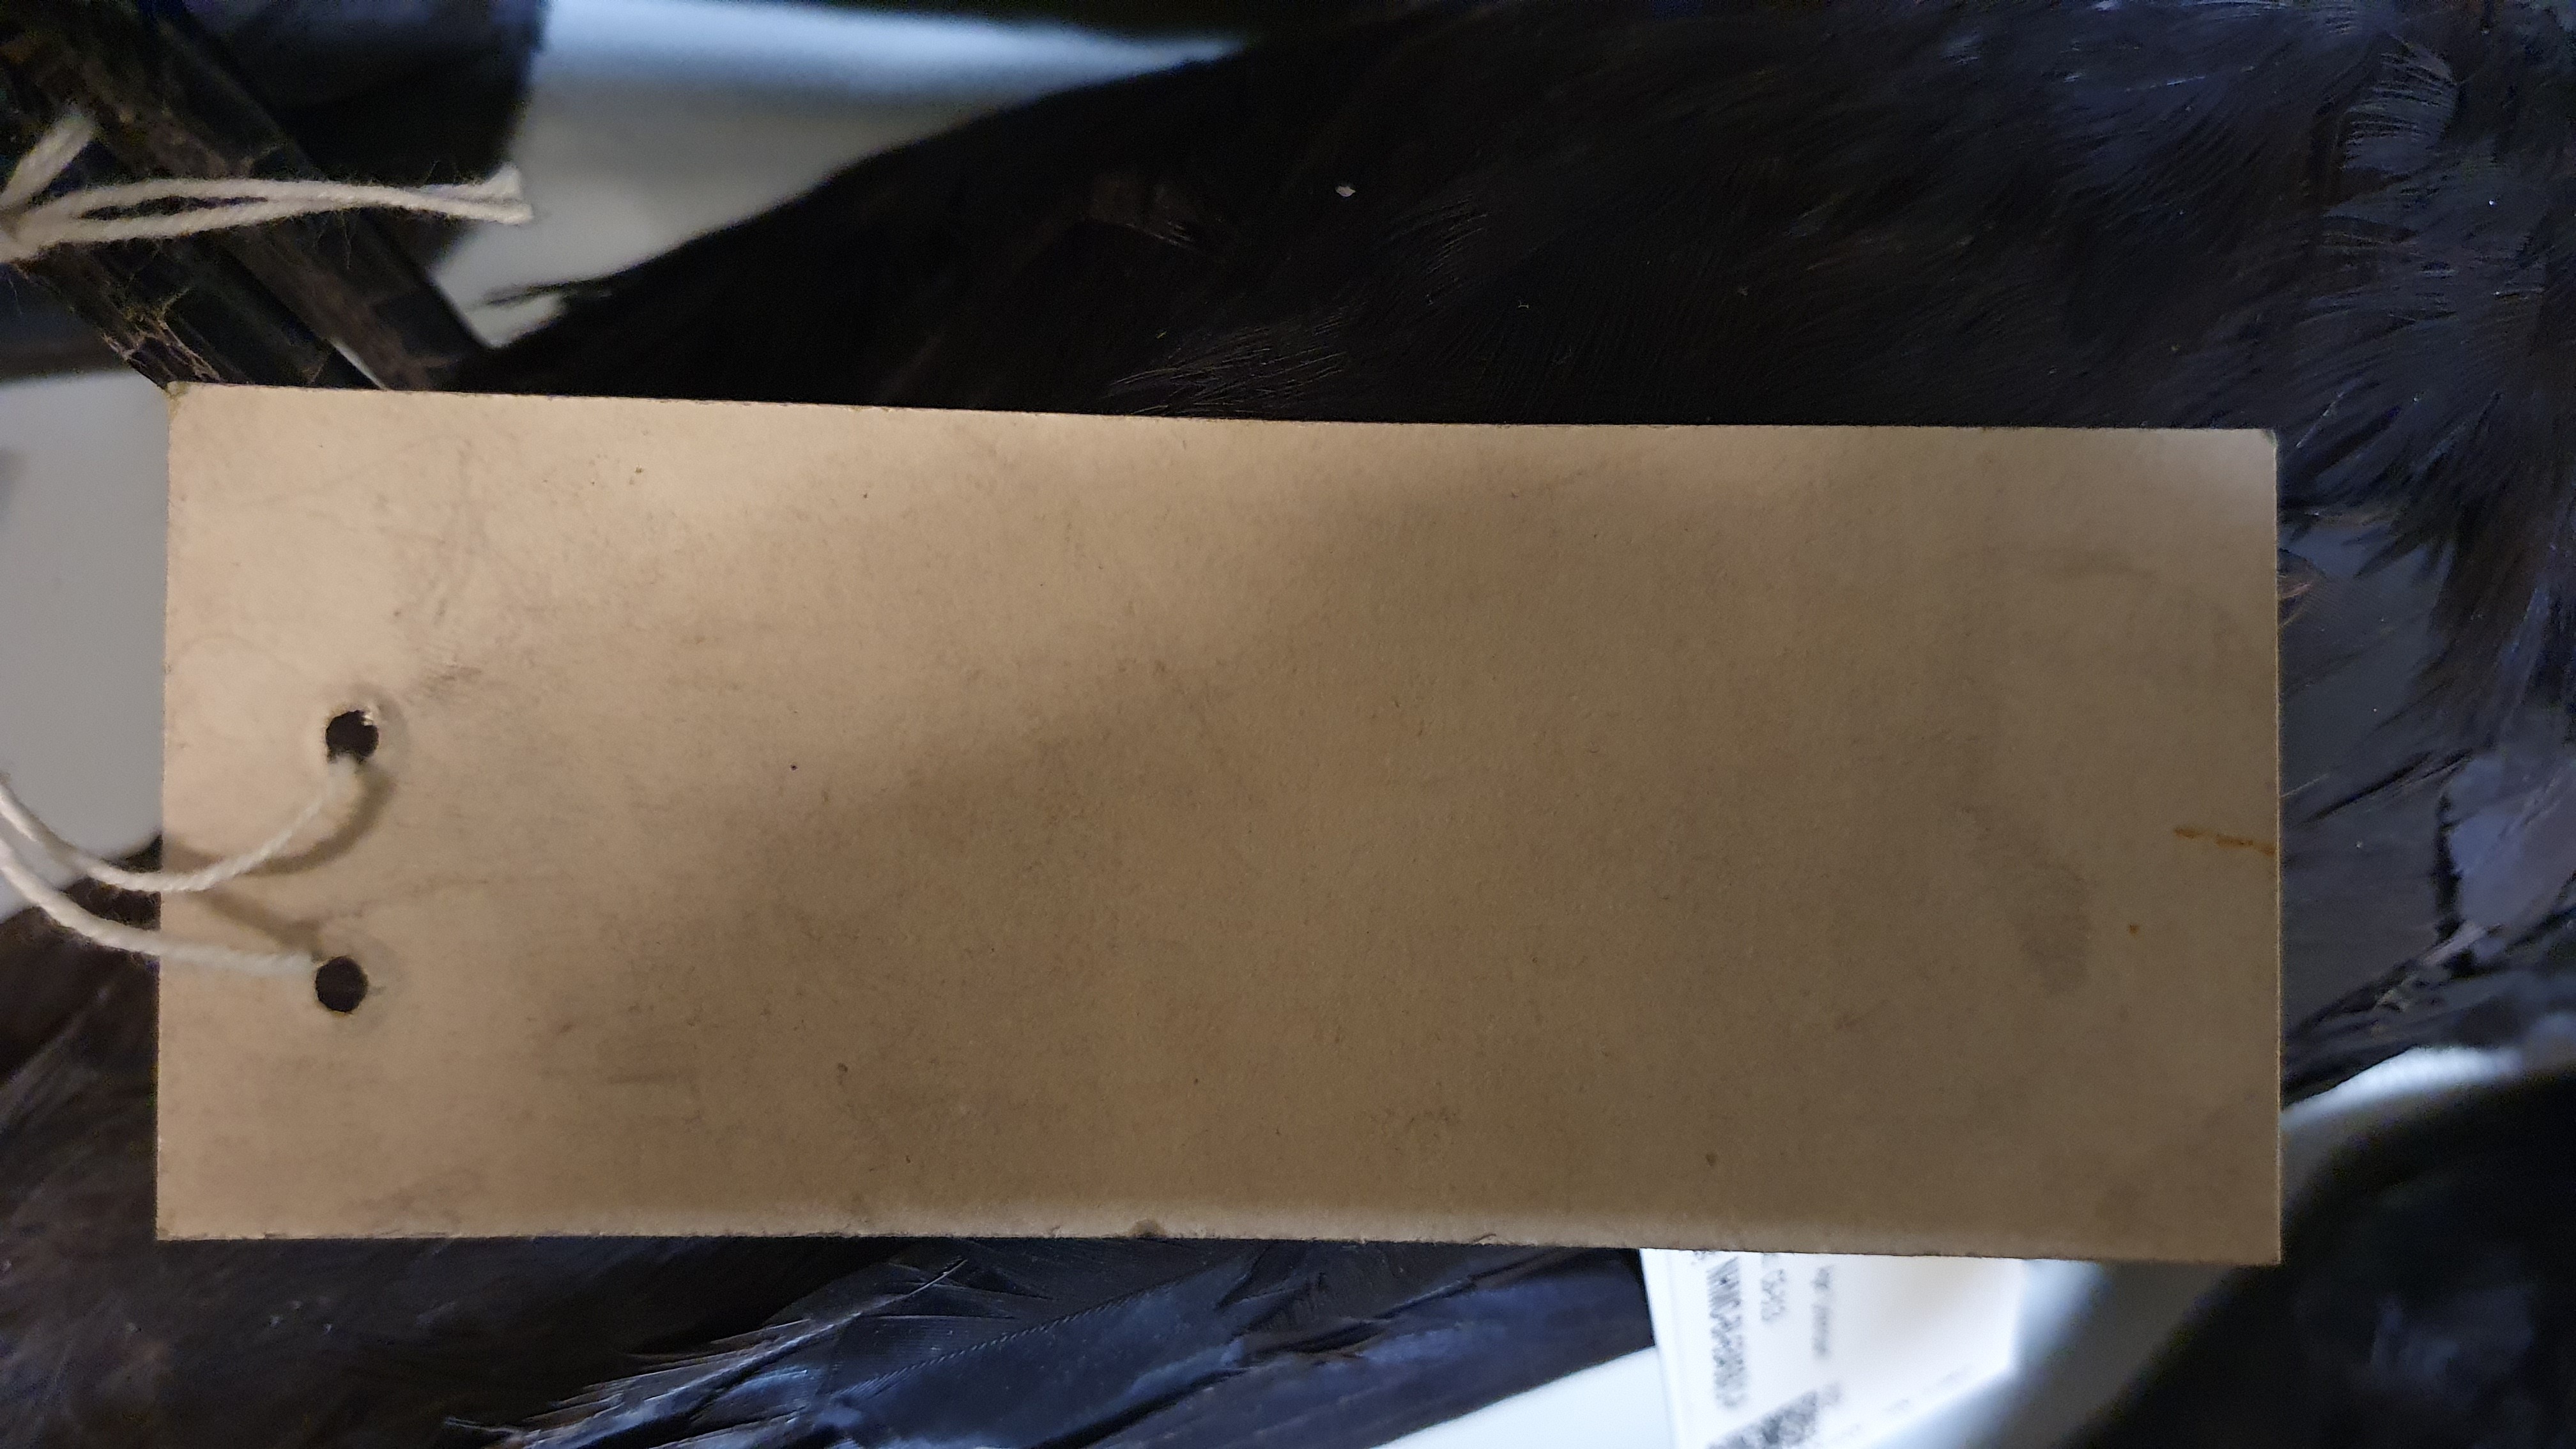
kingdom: Animalia
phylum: Chordata
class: Aves
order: Passeriformes
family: Corvidae
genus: Corvus
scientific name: Corvus corone
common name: Carrion crow
